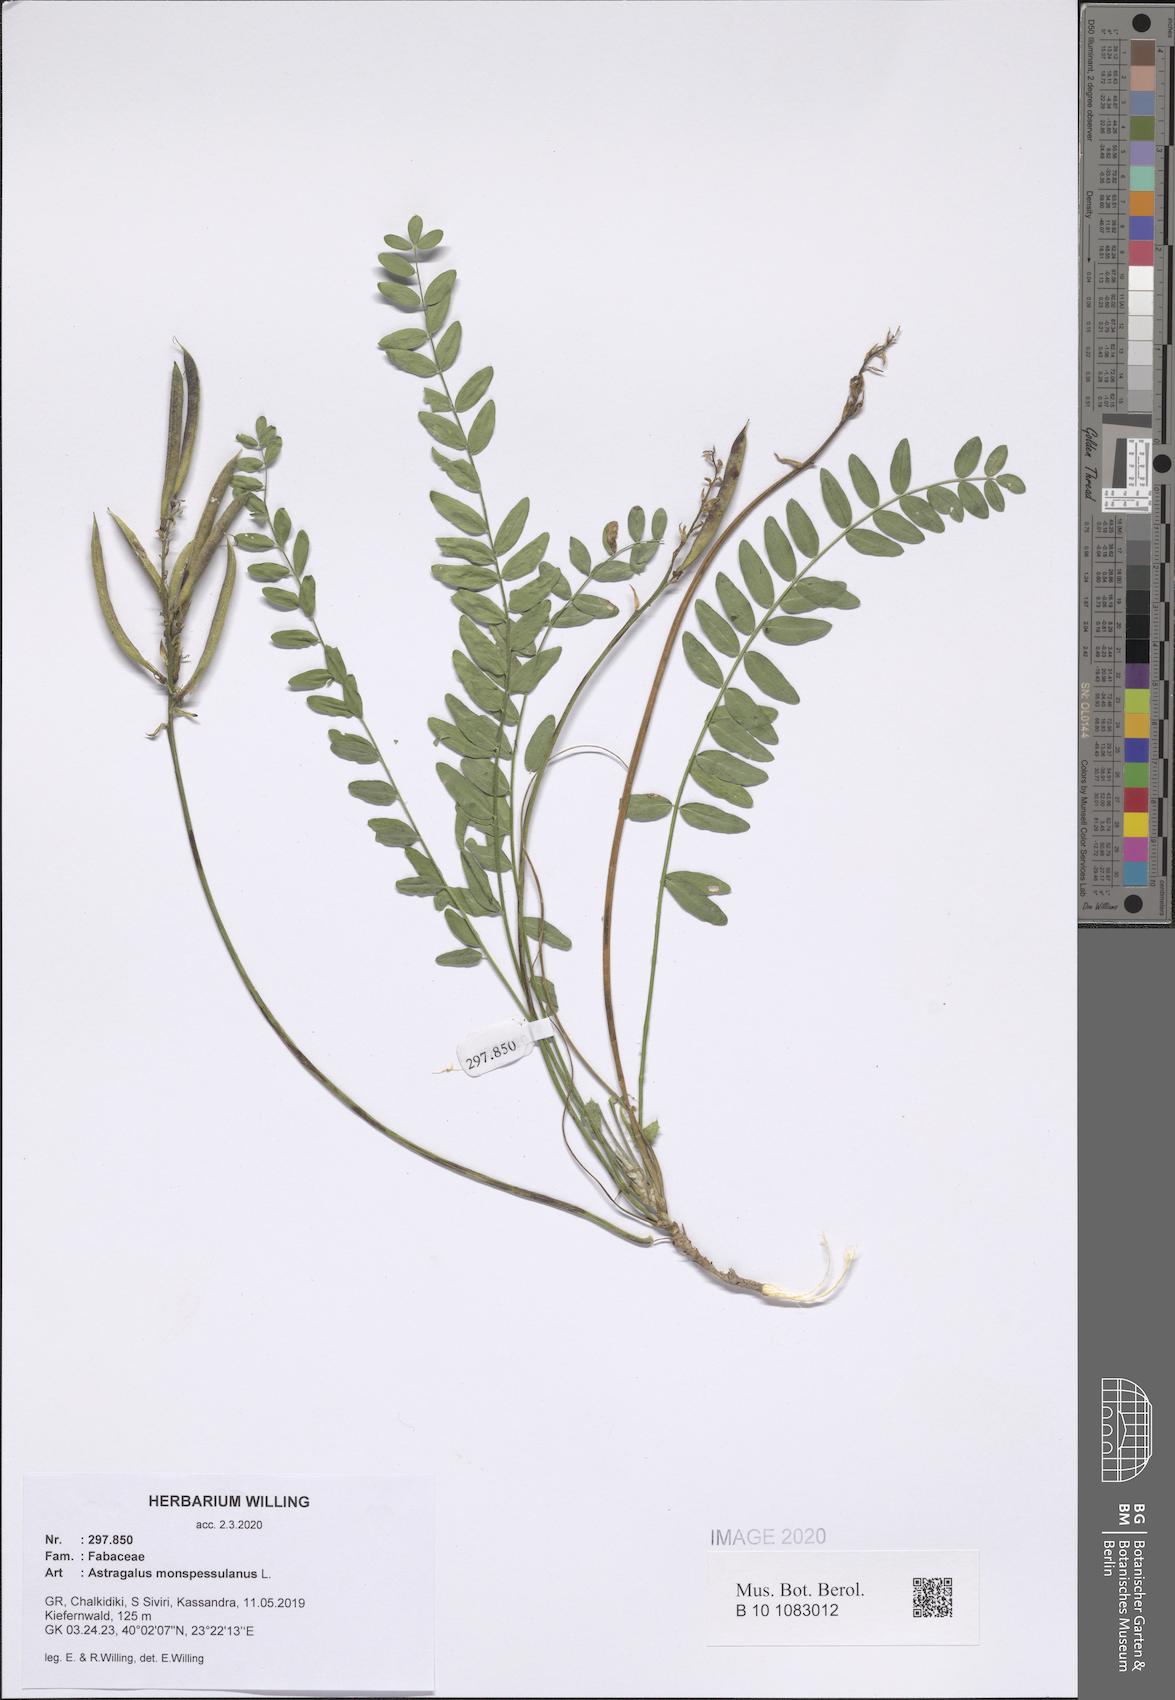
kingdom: Plantae
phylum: Tracheophyta
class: Magnoliopsida
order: Fabales
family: Fabaceae
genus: Astragalus
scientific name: Astragalus monspessulanus
